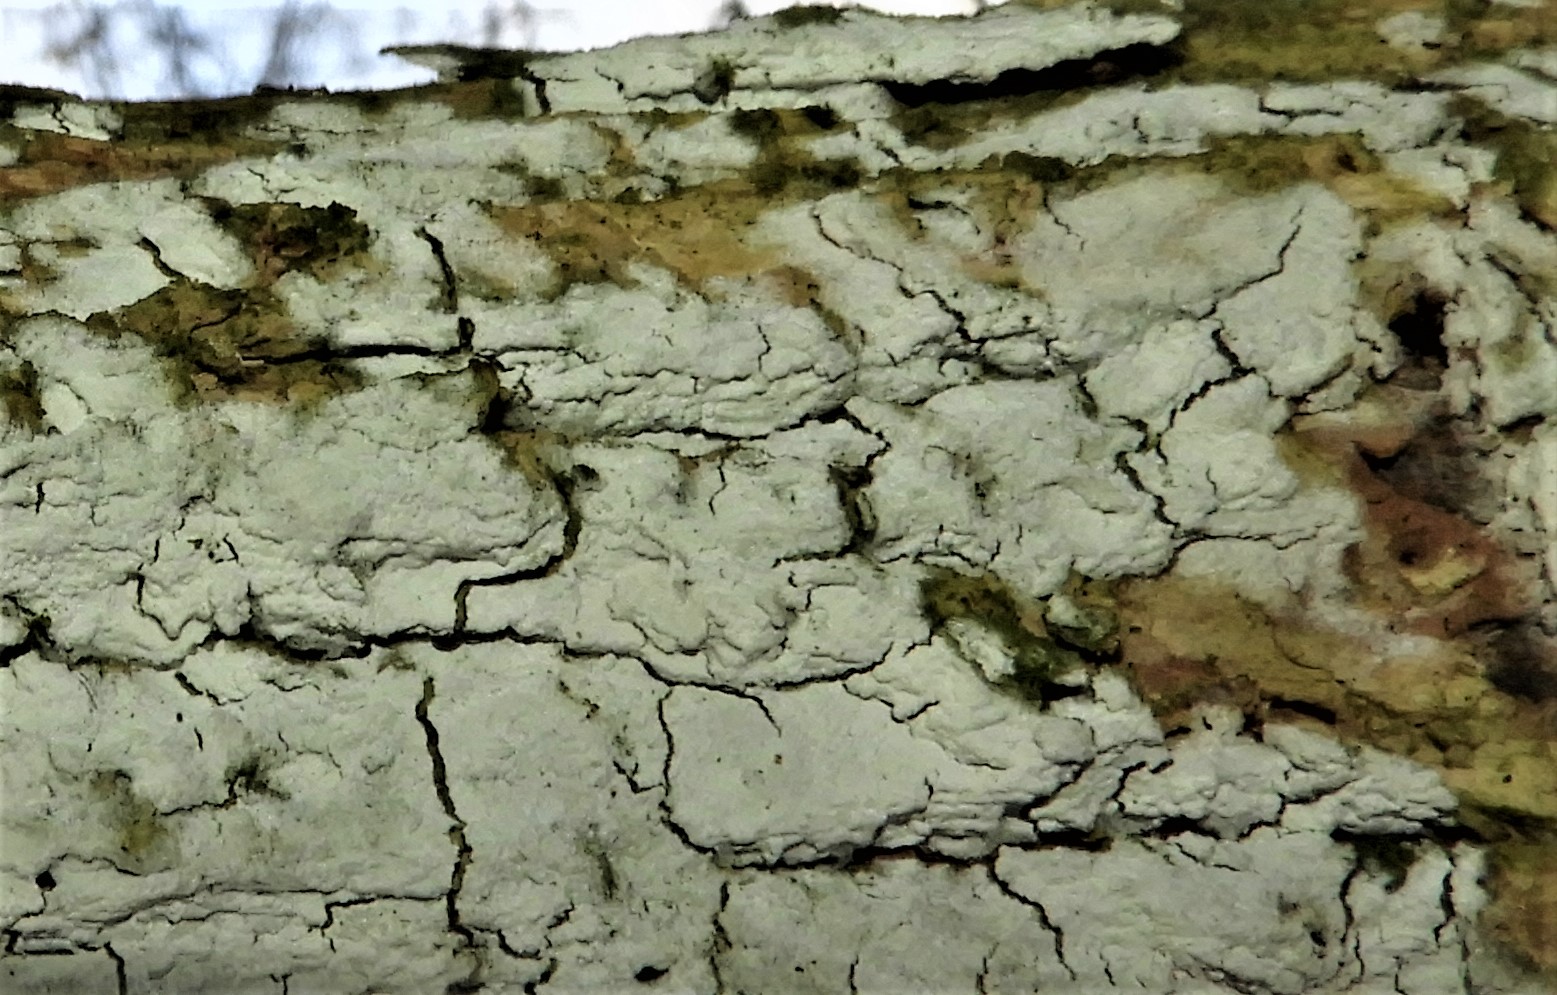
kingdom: Fungi
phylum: Basidiomycota
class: Agaricomycetes
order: Corticiales
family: Corticiaceae
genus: Lyomyces
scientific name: Lyomyces sambuci
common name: almindelig hyldehinde
